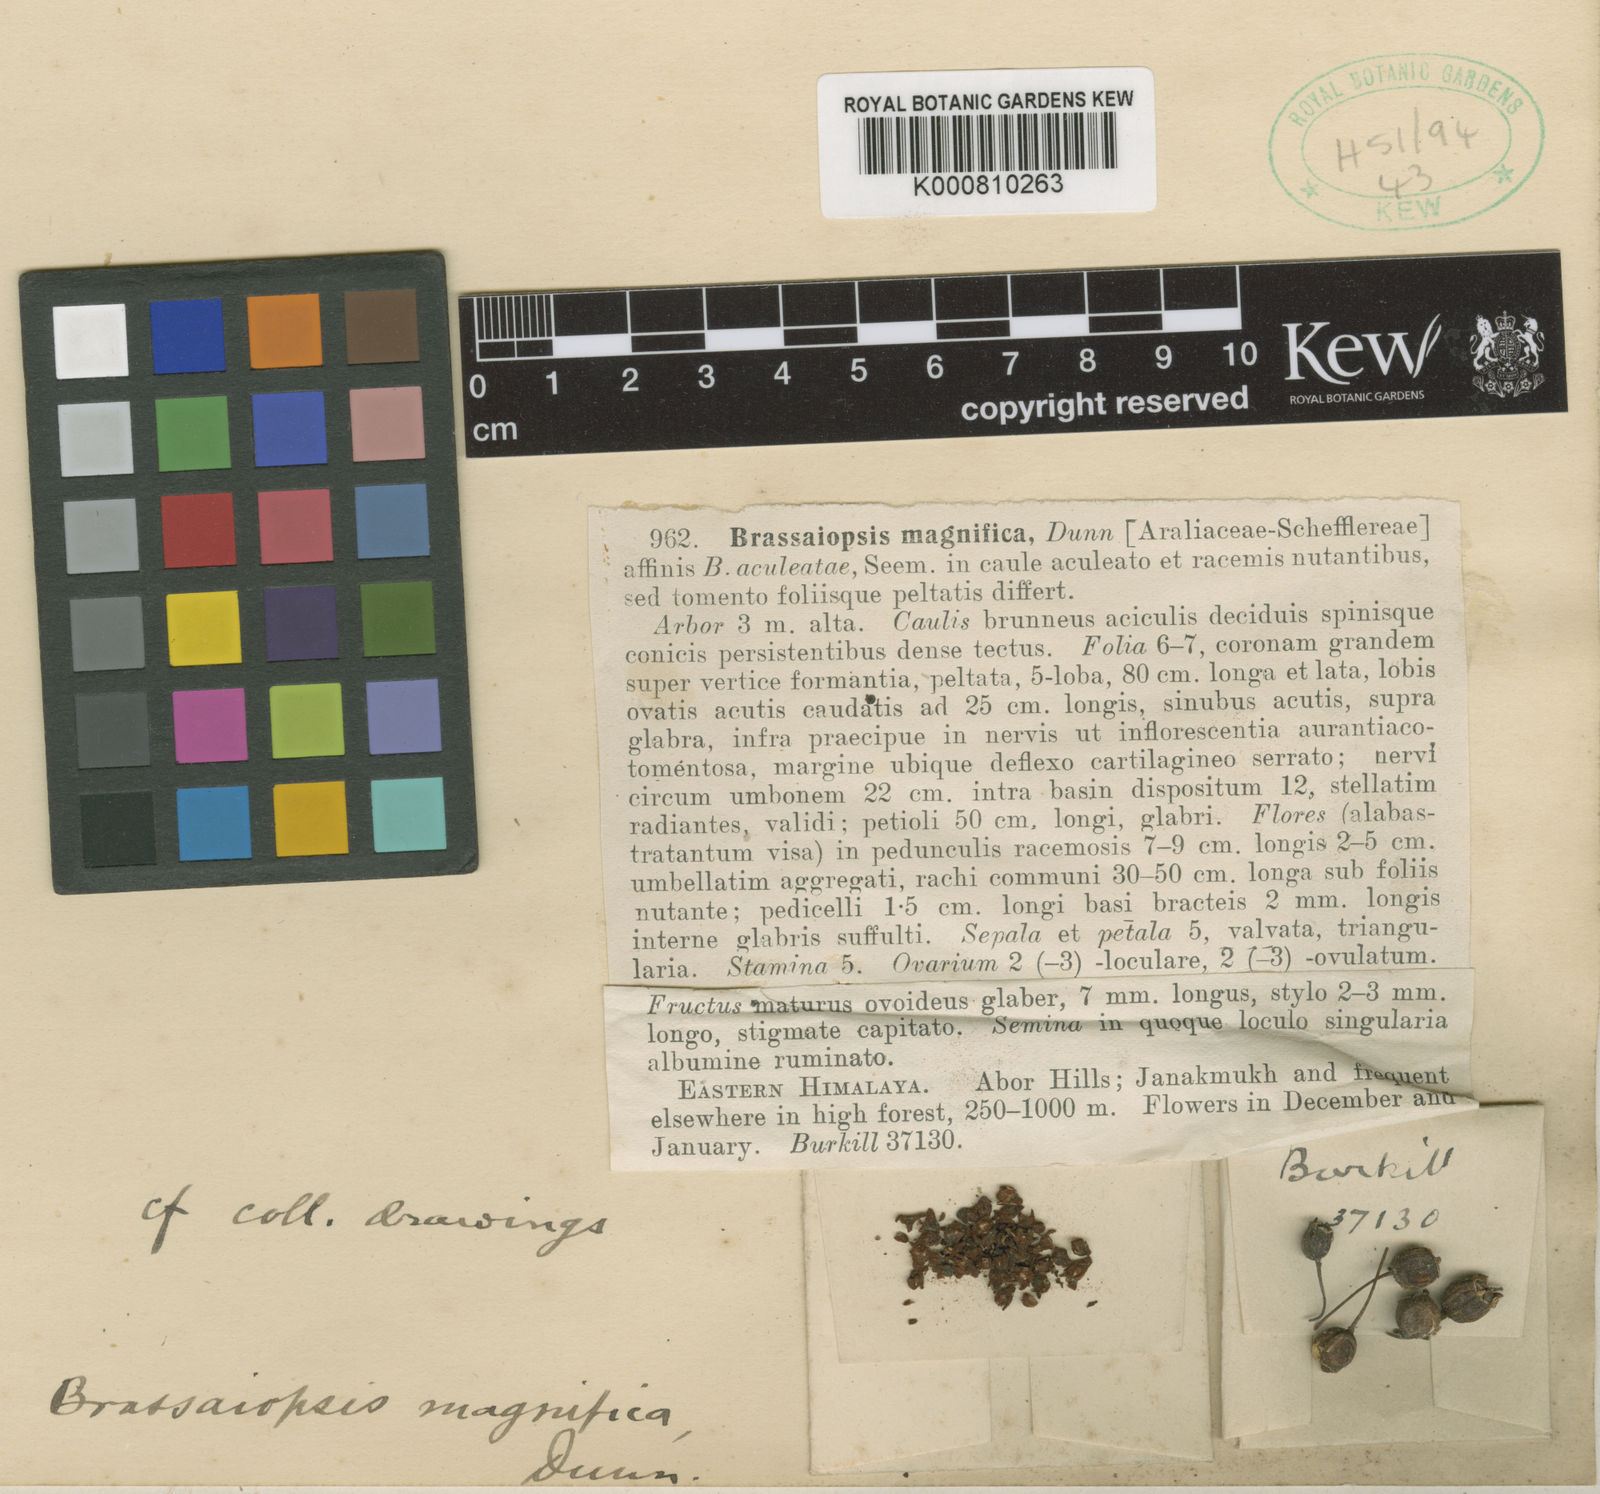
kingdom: Plantae
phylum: Tracheophyta
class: Magnoliopsida
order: Apiales
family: Araliaceae
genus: Brassaiopsis
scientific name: Brassaiopsis magnifica
